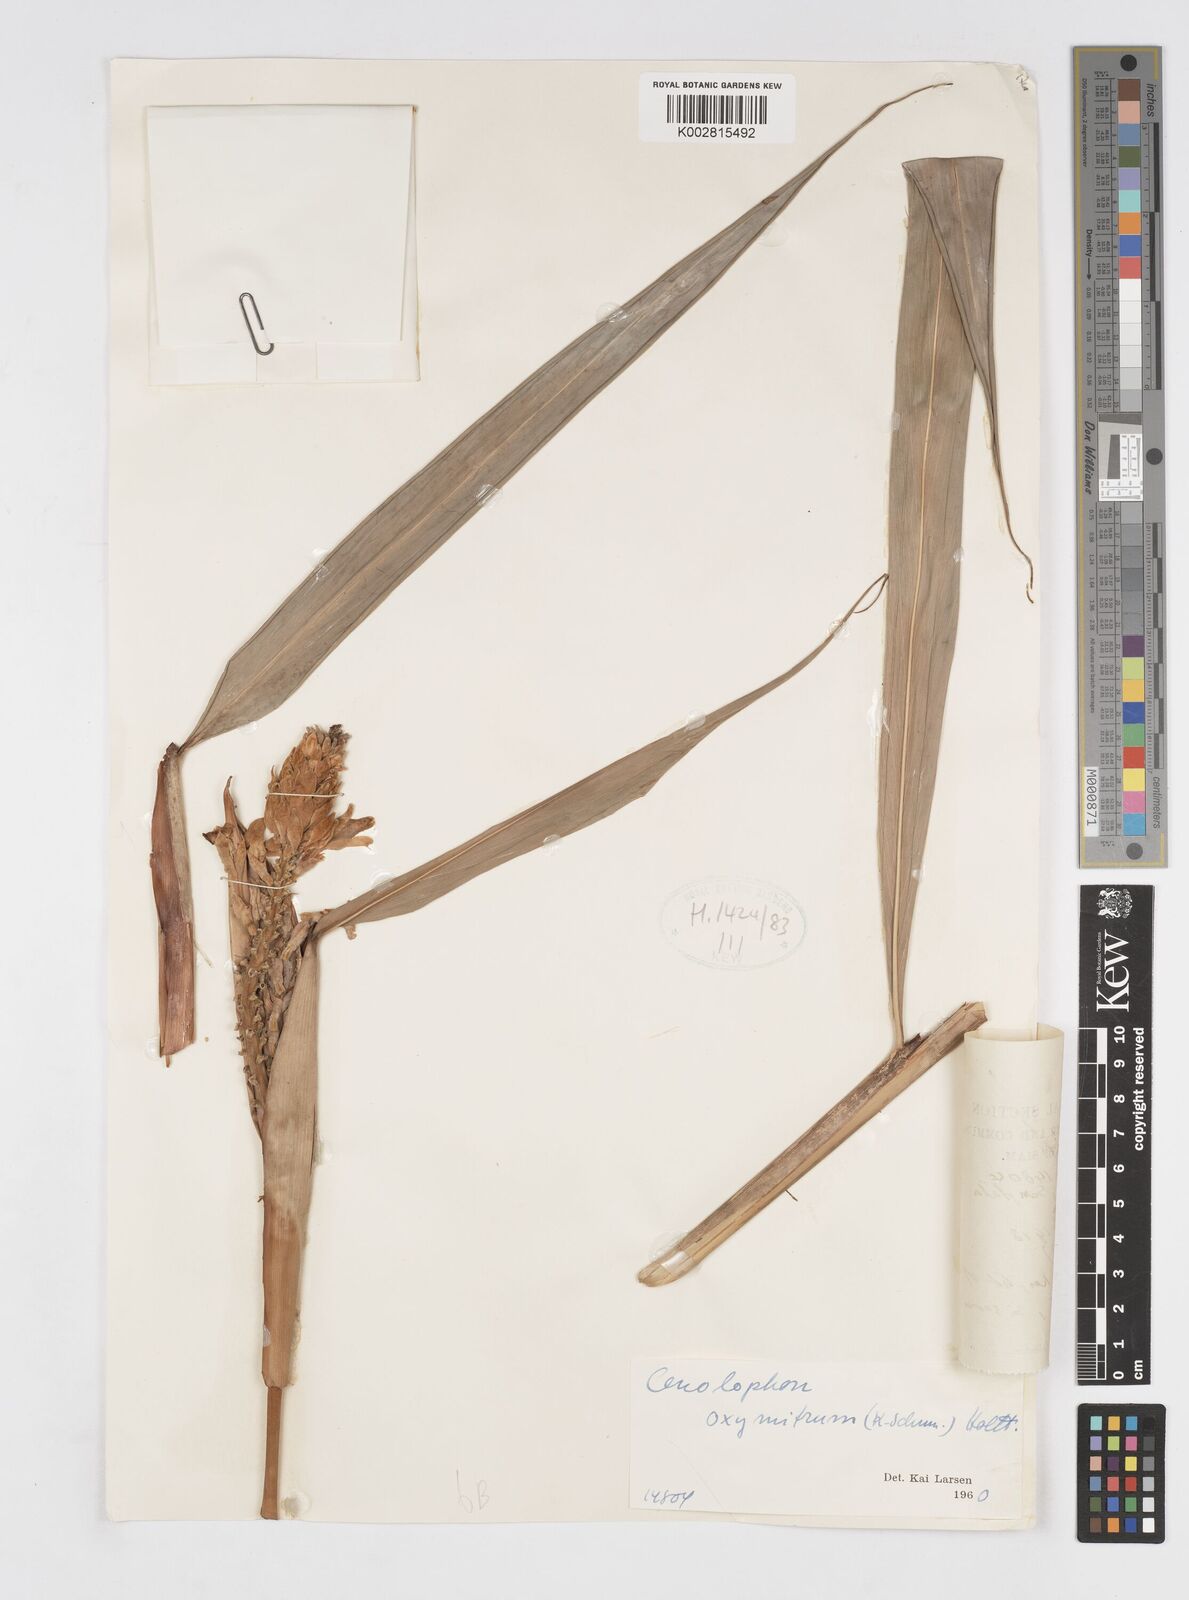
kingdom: Plantae
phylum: Tracheophyta
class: Liliopsida
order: Zingiberales
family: Zingiberaceae
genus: Alpinia
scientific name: Alpinia oxymitra
